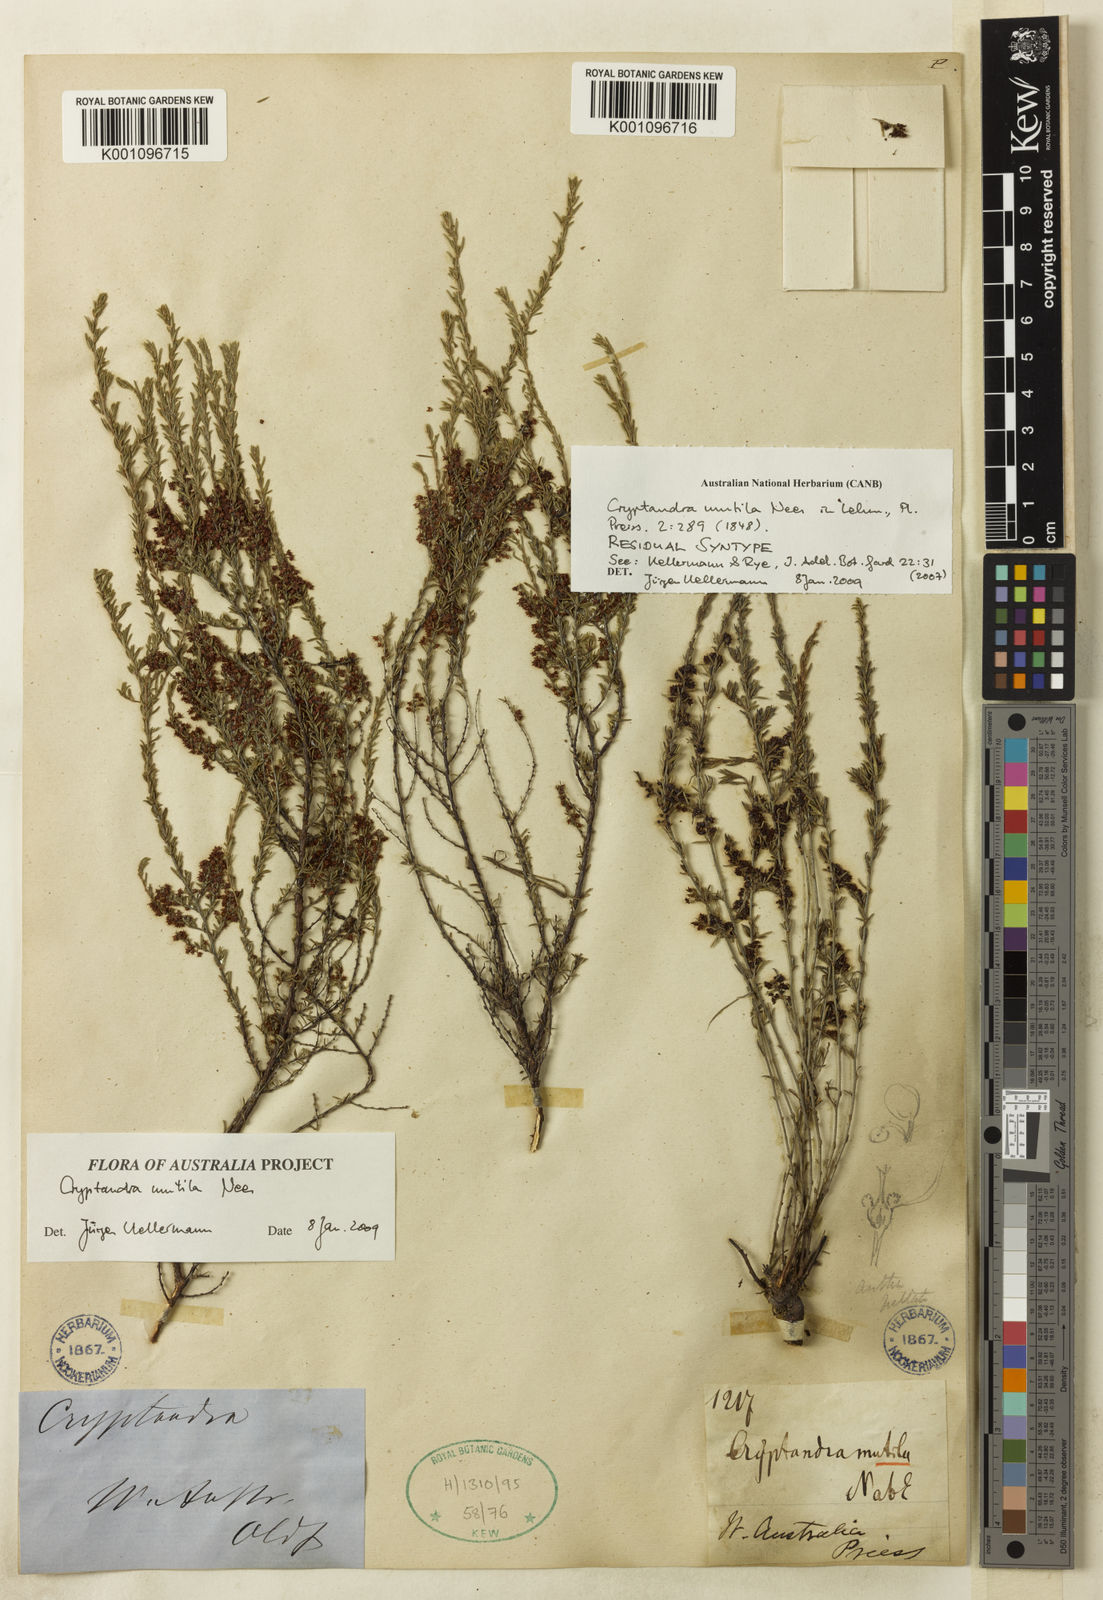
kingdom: Plantae
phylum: Tracheophyta
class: Magnoliopsida
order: Rosales
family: Rhamnaceae
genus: Cryptandra
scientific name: Cryptandra mutila
